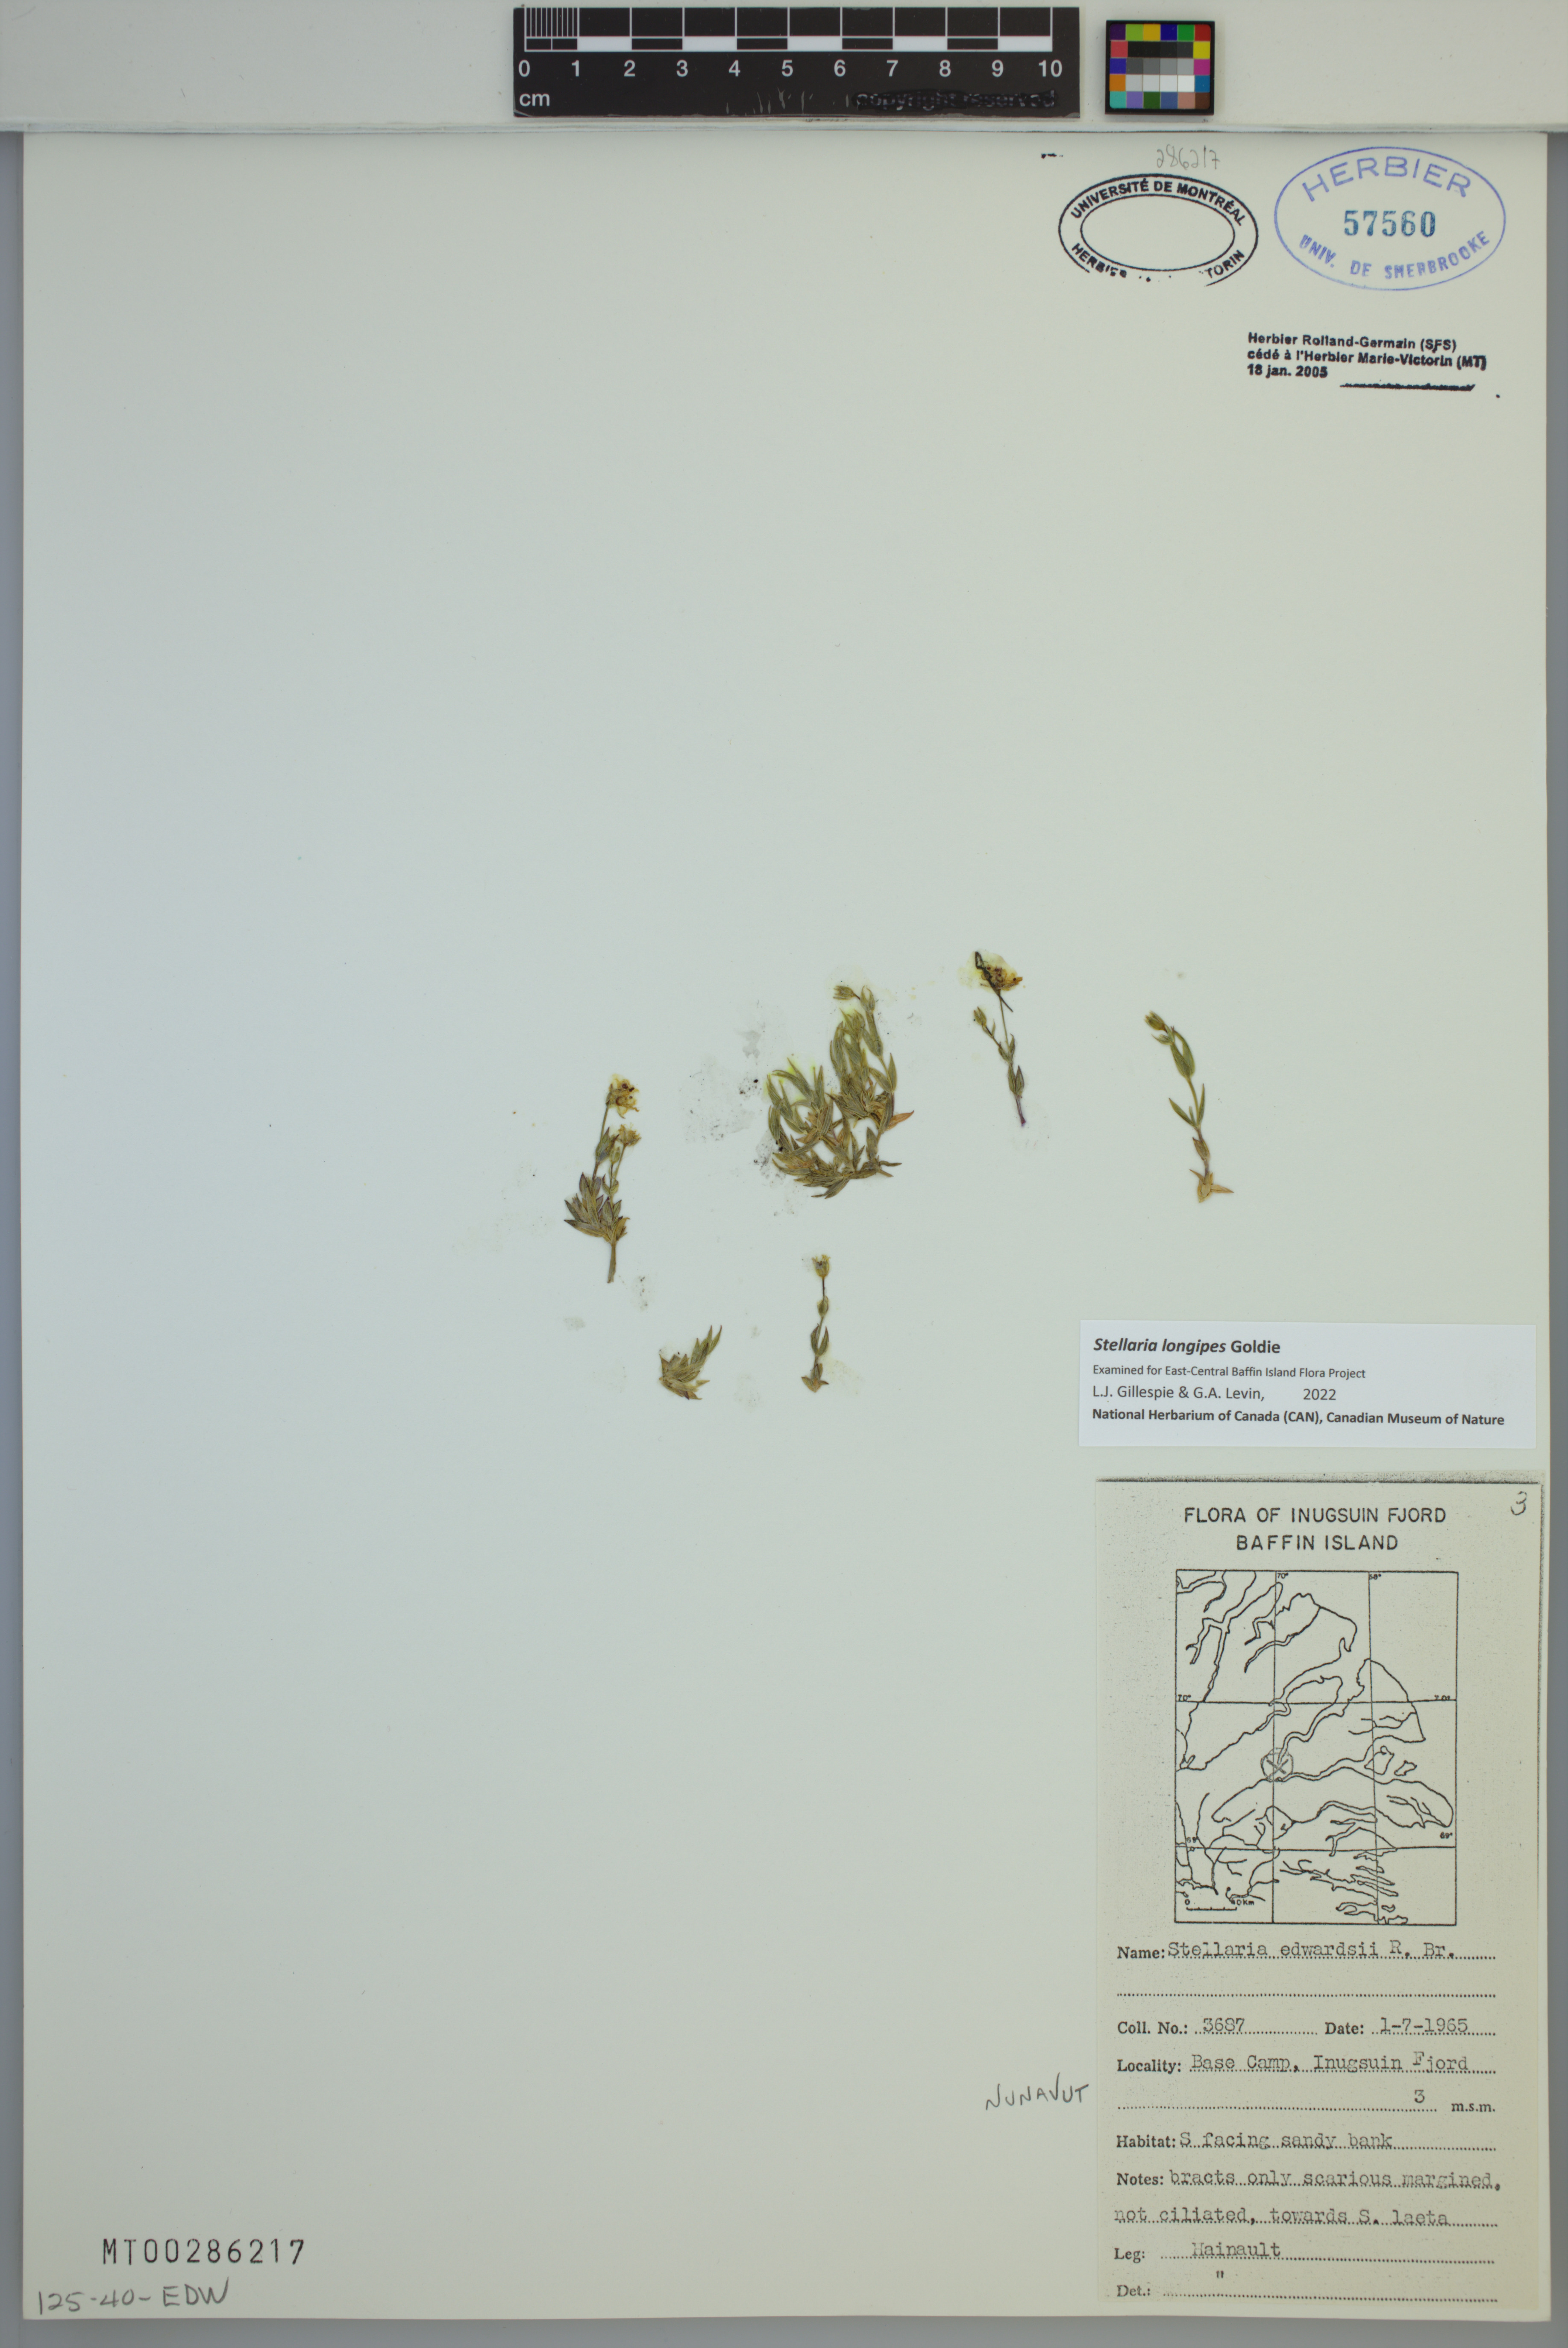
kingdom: Plantae
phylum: Tracheophyta
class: Magnoliopsida
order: Caryophyllales
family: Caryophyllaceae
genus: Stellaria
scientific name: Stellaria longipes
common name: Goldie's starwort
